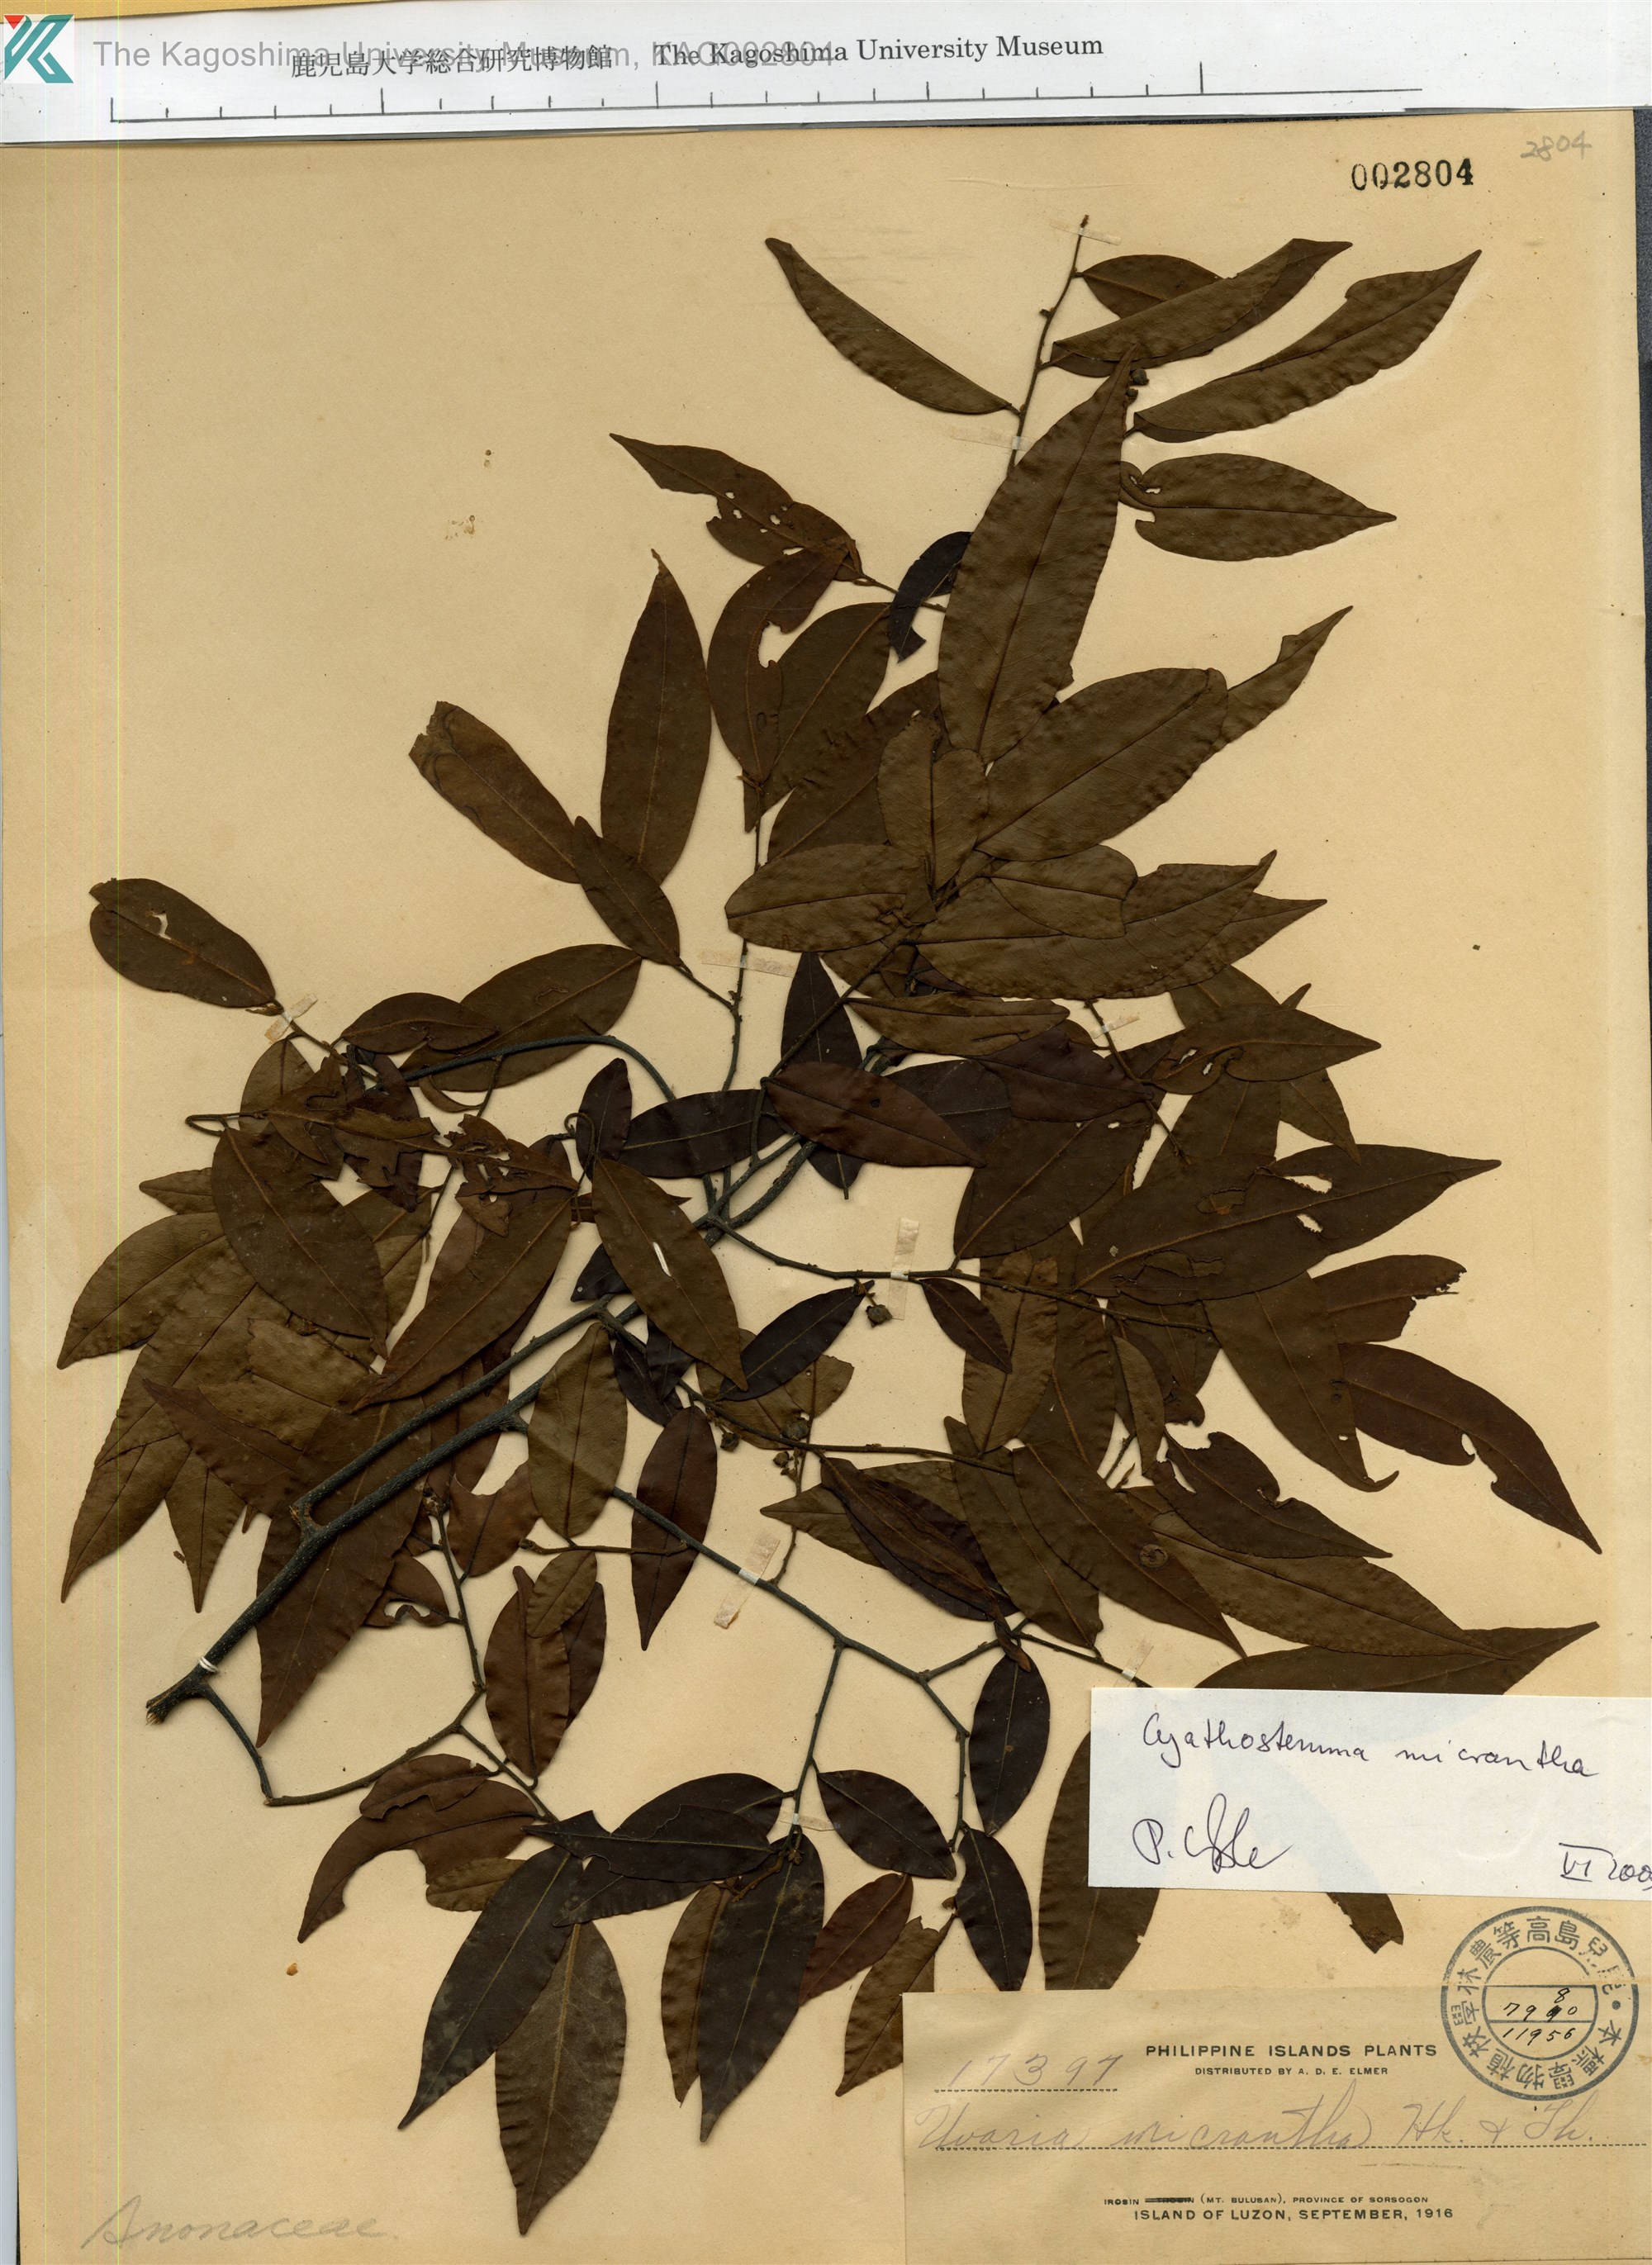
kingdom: Plantae
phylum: Tracheophyta
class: Magnoliopsida
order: Magnoliales
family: Annonaceae
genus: Uvaria
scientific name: Uvaria micrantha
